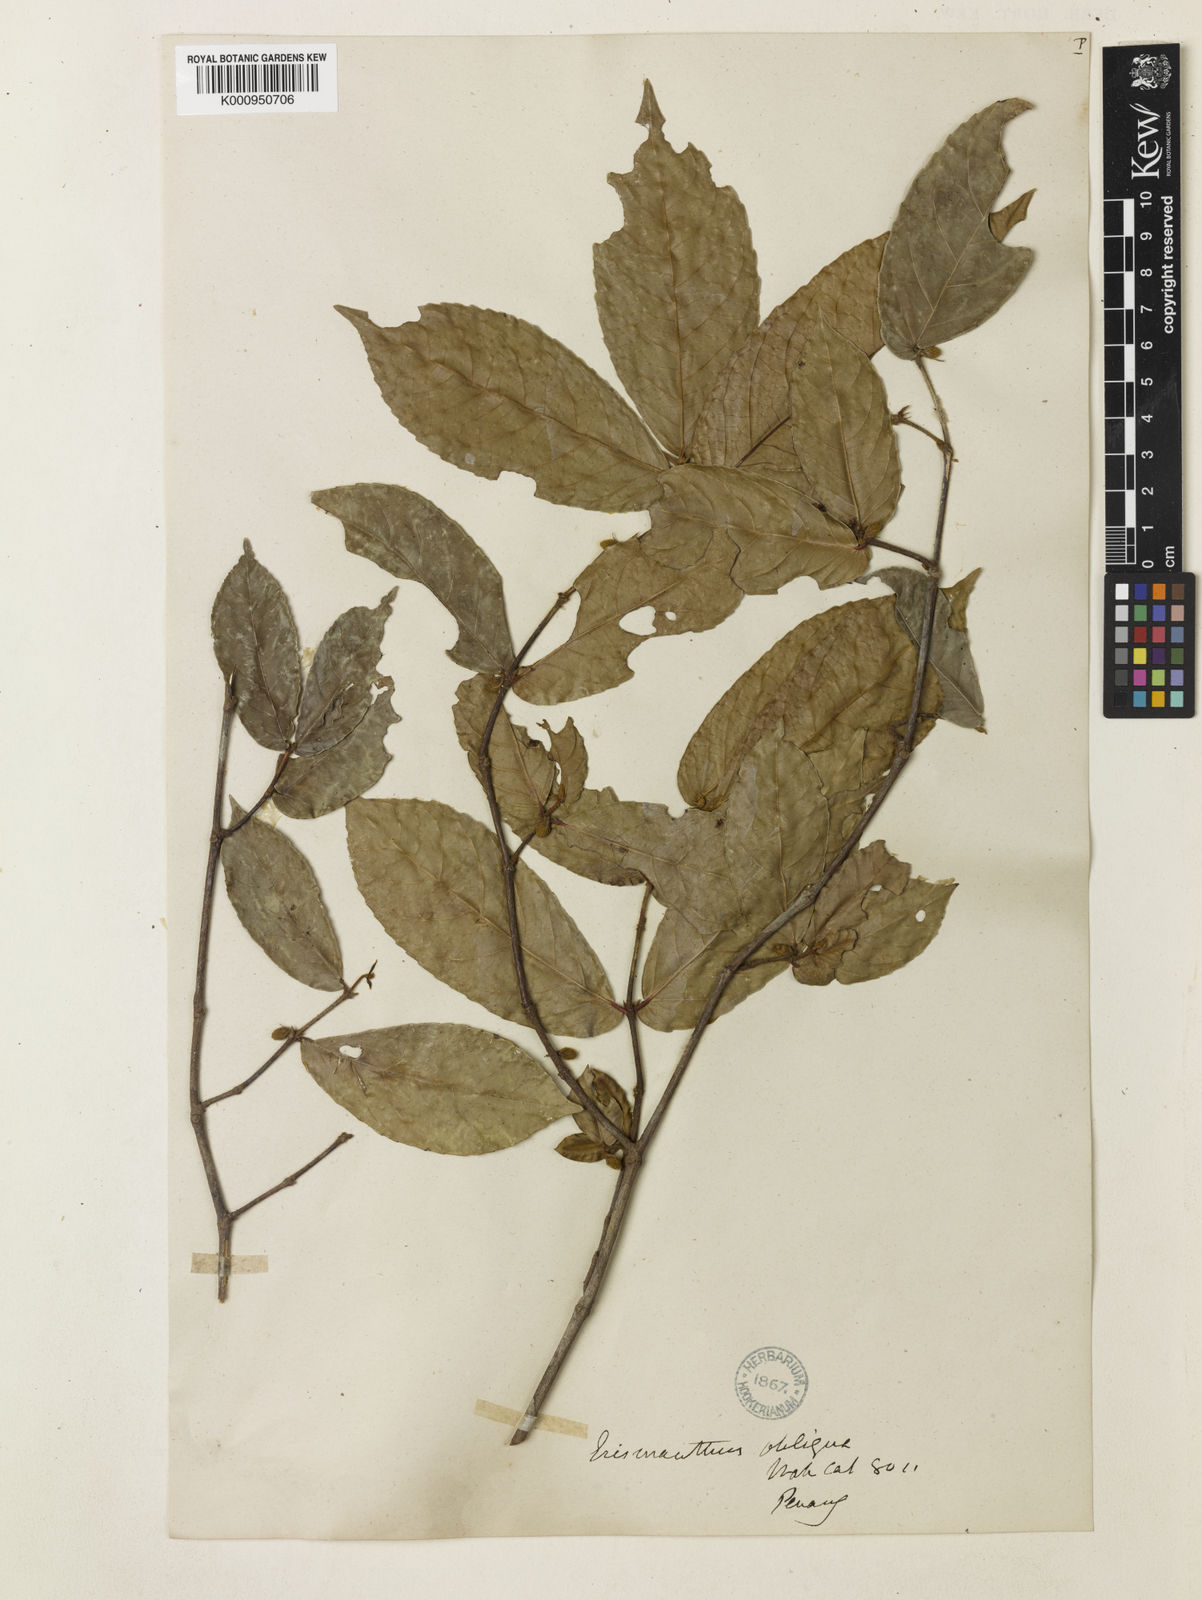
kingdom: Plantae
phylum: Tracheophyta
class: Magnoliopsida
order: Malpighiales
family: Euphorbiaceae
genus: Erismanthus
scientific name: Erismanthus
